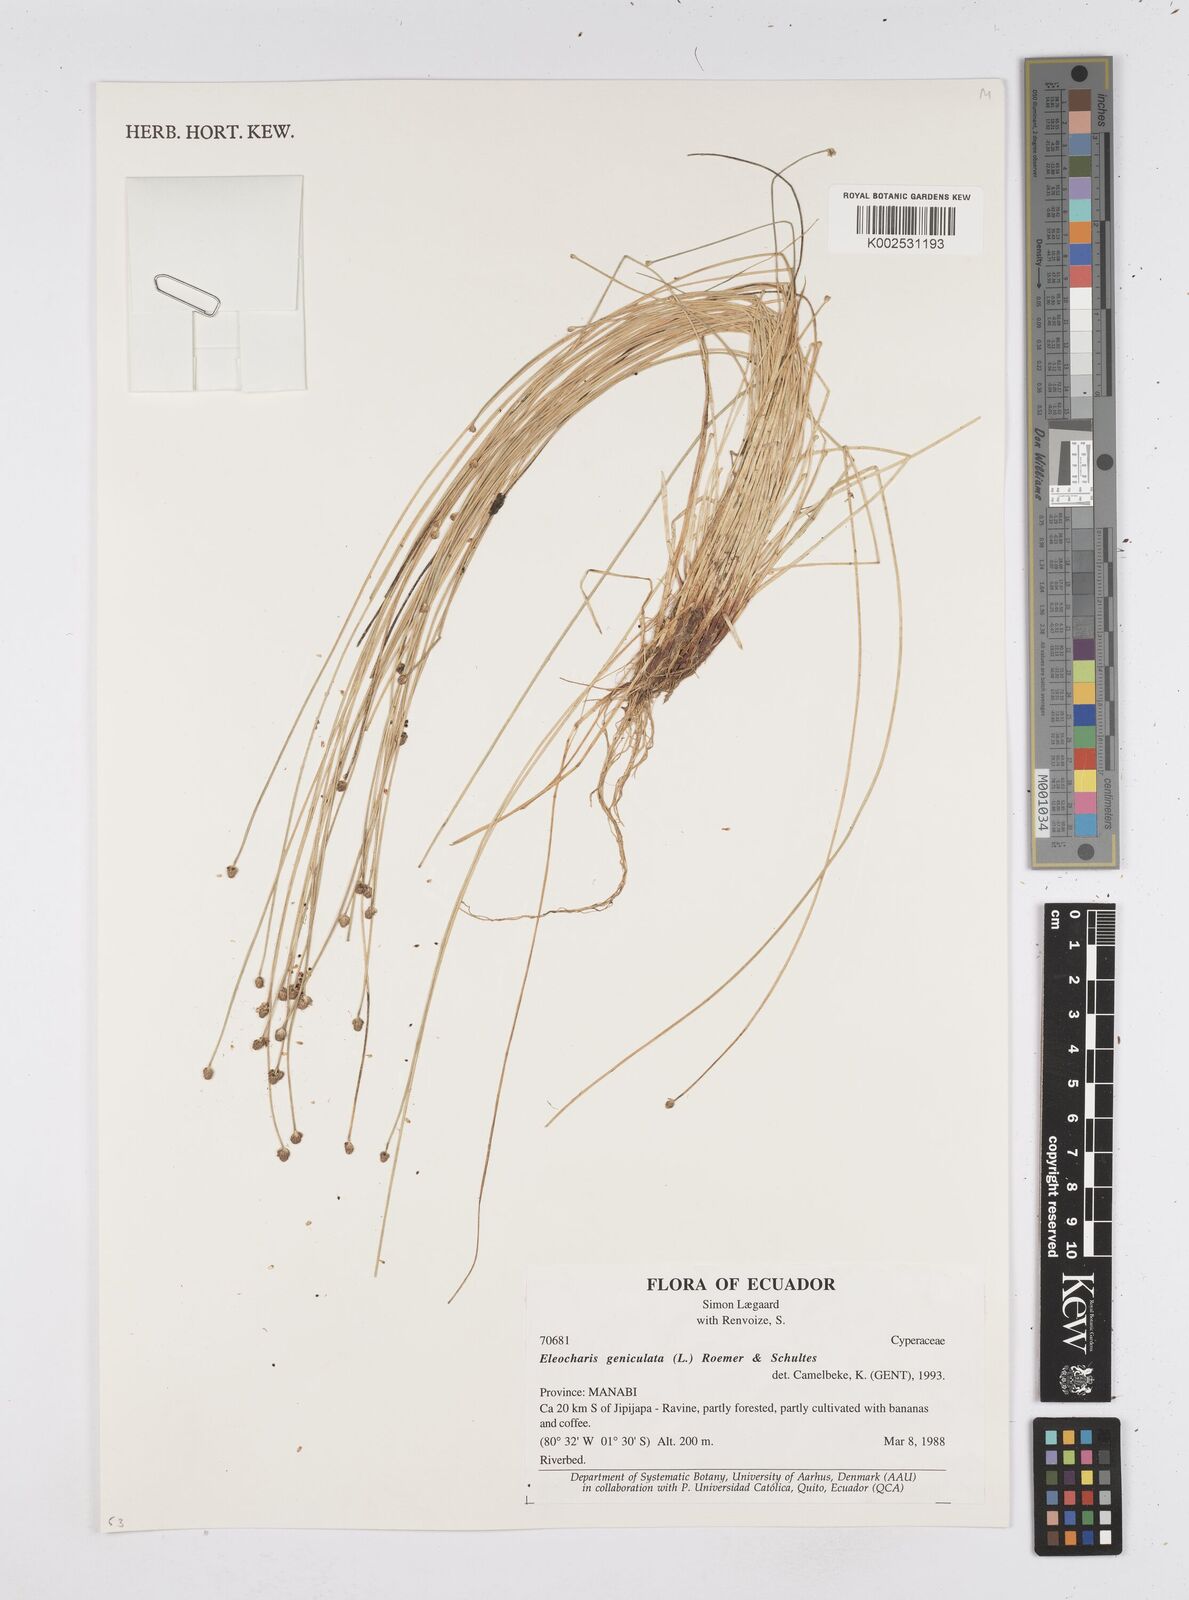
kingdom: Plantae
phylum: Tracheophyta
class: Liliopsida
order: Poales
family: Cyperaceae
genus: Eleocharis
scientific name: Eleocharis geniculata
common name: Canada spikesedge
